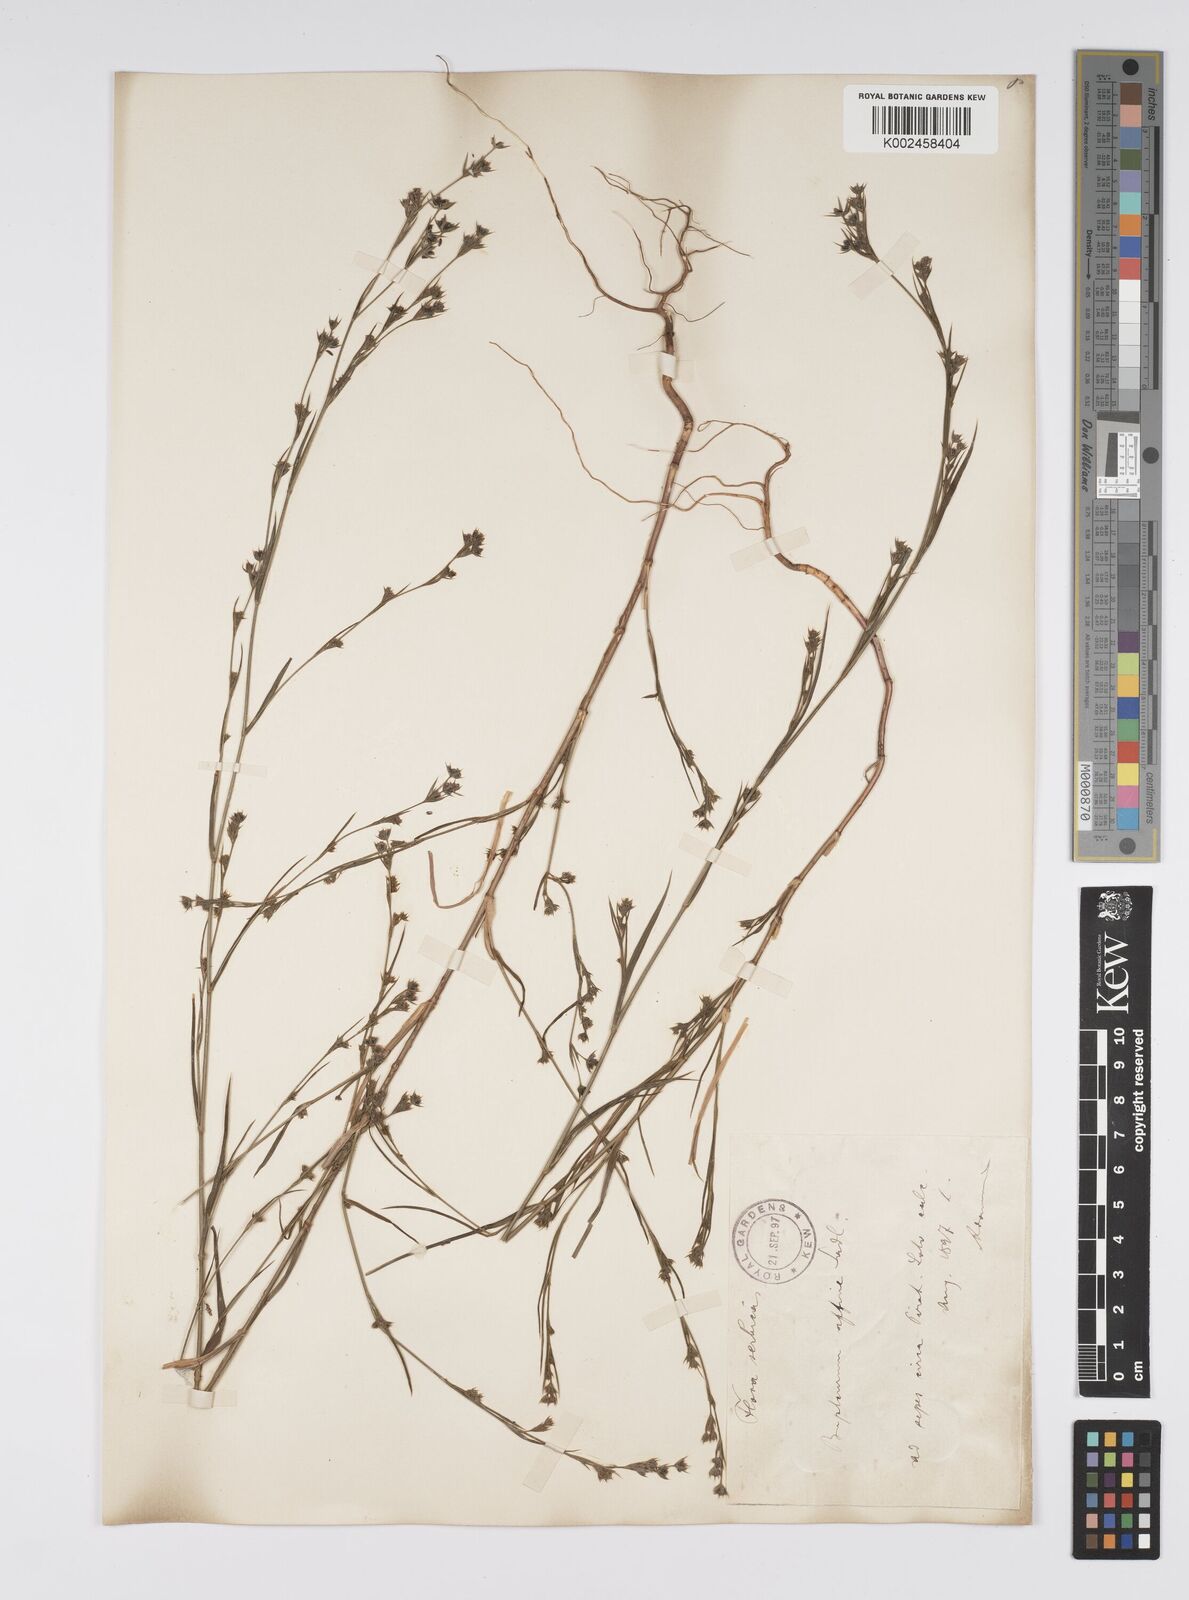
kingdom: Plantae
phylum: Tracheophyta
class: Magnoliopsida
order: Apiales
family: Apiaceae
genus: Bupleurum
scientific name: Bupleurum affine
